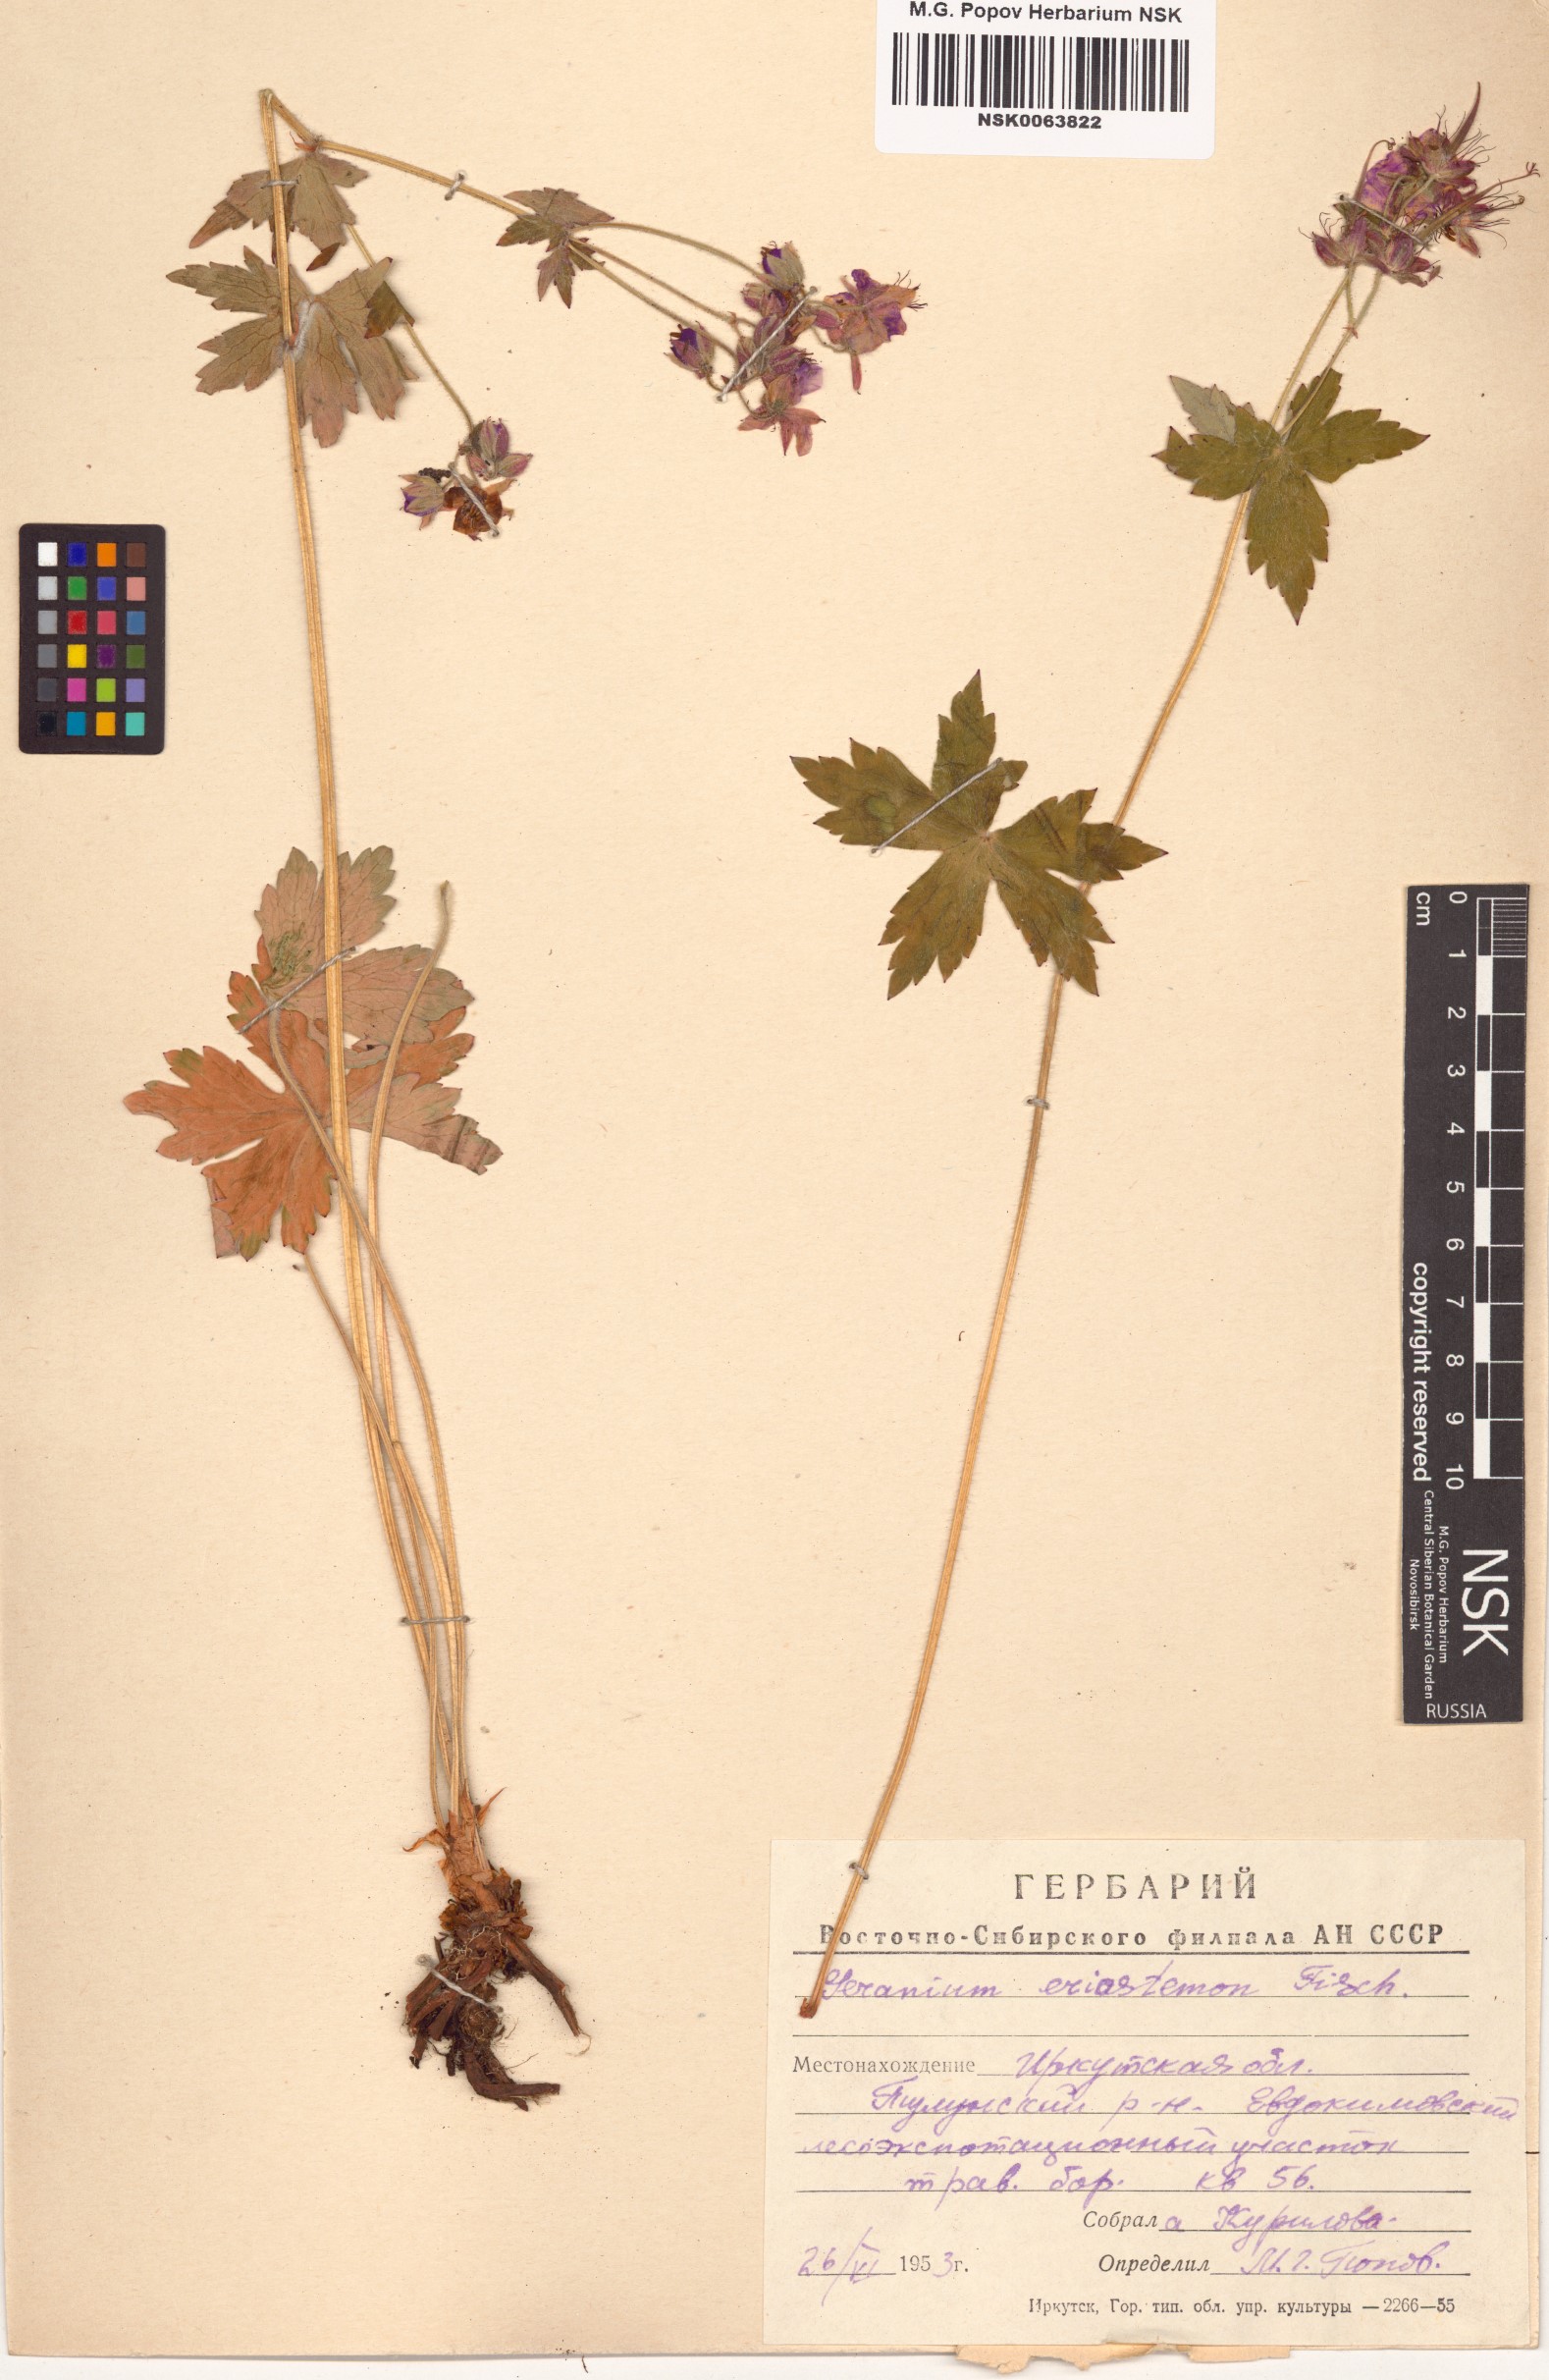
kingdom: Plantae
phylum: Tracheophyta
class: Magnoliopsida
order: Geraniales
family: Geraniaceae
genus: Geranium
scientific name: Geranium platyanthum
